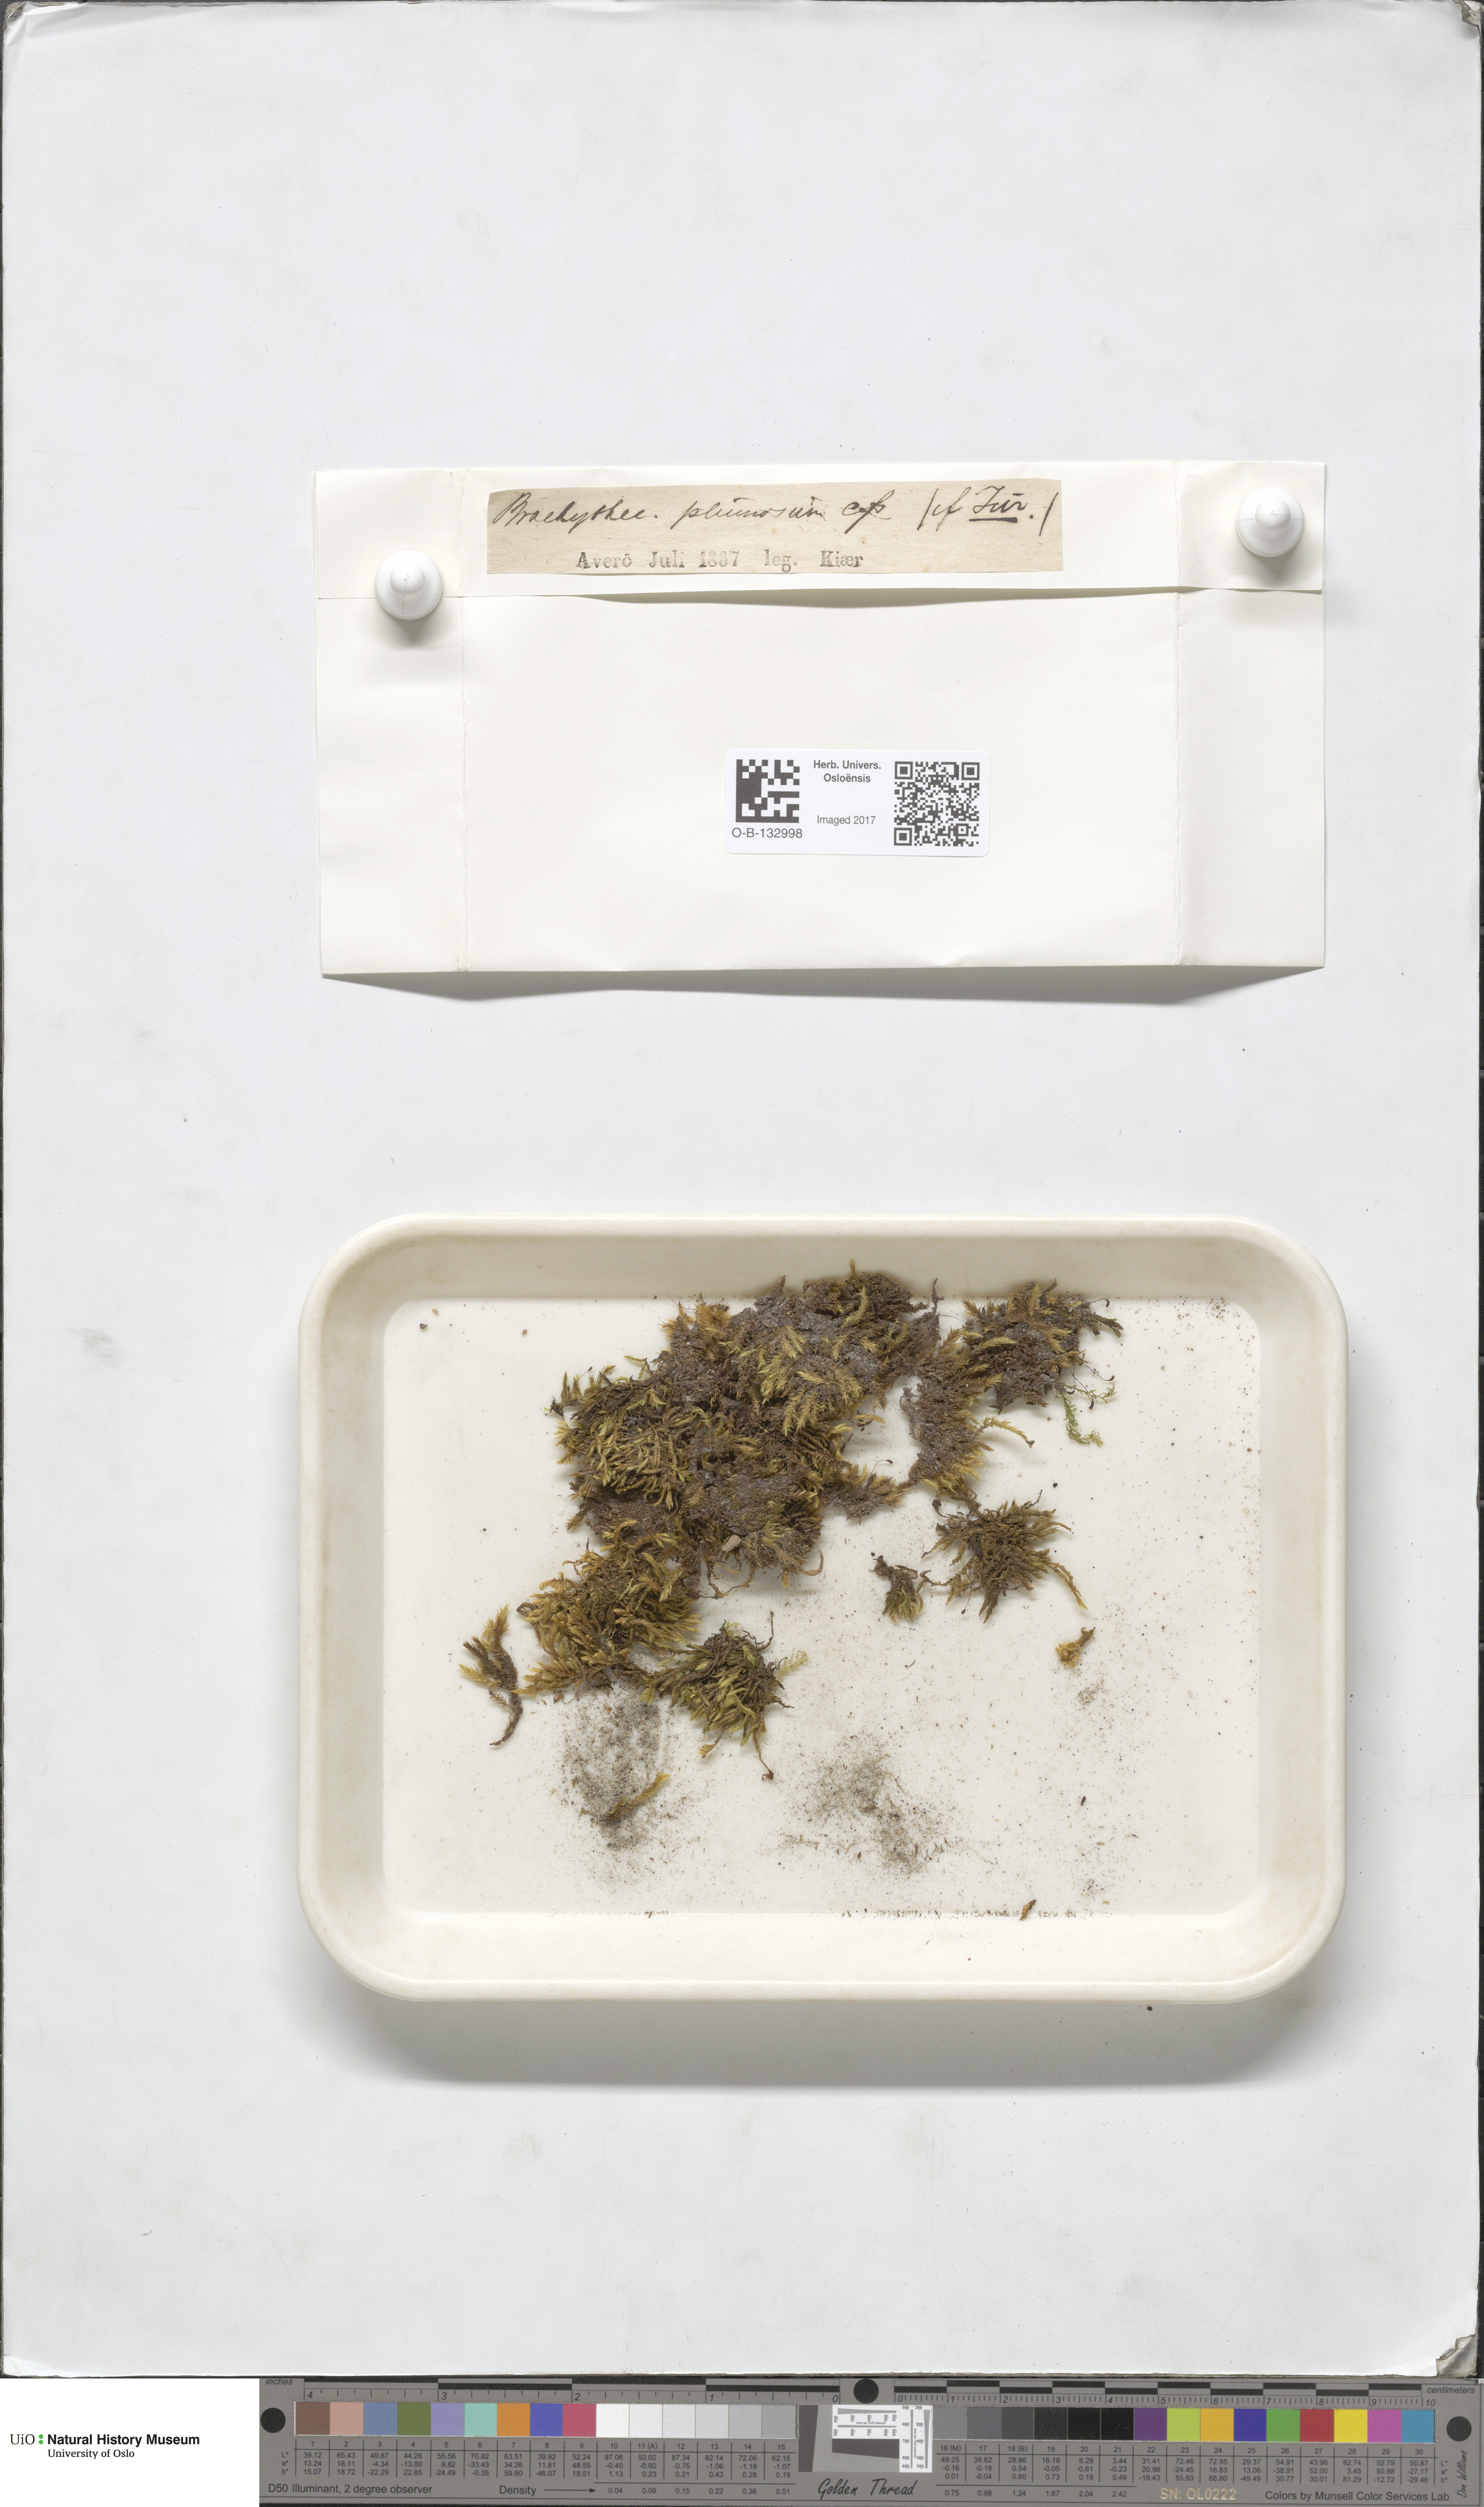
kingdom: Plantae
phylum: Bryophyta
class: Bryopsida
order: Hypnales
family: Brachytheciaceae
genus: Sciuro-hypnum
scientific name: Sciuro-hypnum plumosum
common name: Rusty feather-moss
